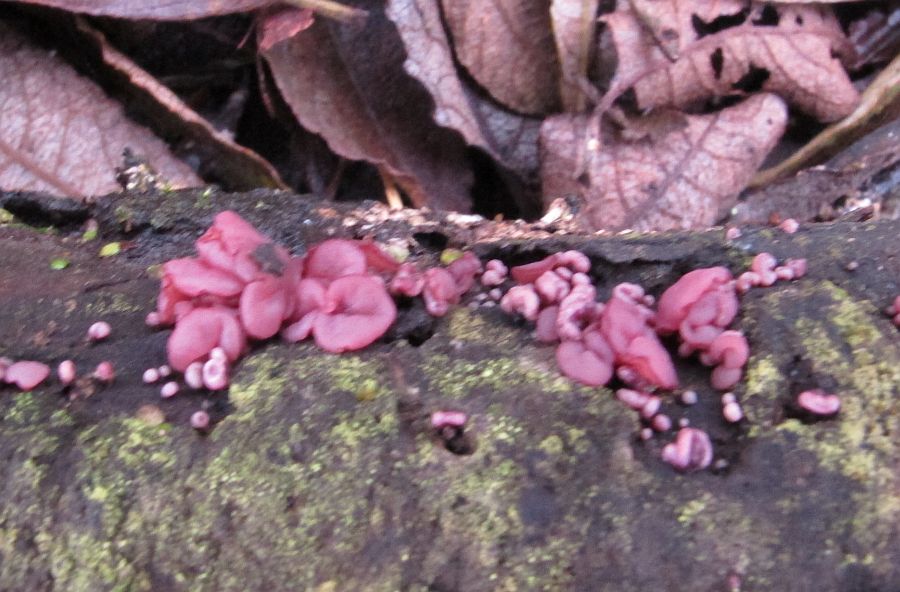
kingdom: Fungi
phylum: Ascomycota
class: Leotiomycetes
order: Helotiales
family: Gelatinodiscaceae
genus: Ascocoryne
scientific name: Ascocoryne sarcoides
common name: rødlilla sejskive
